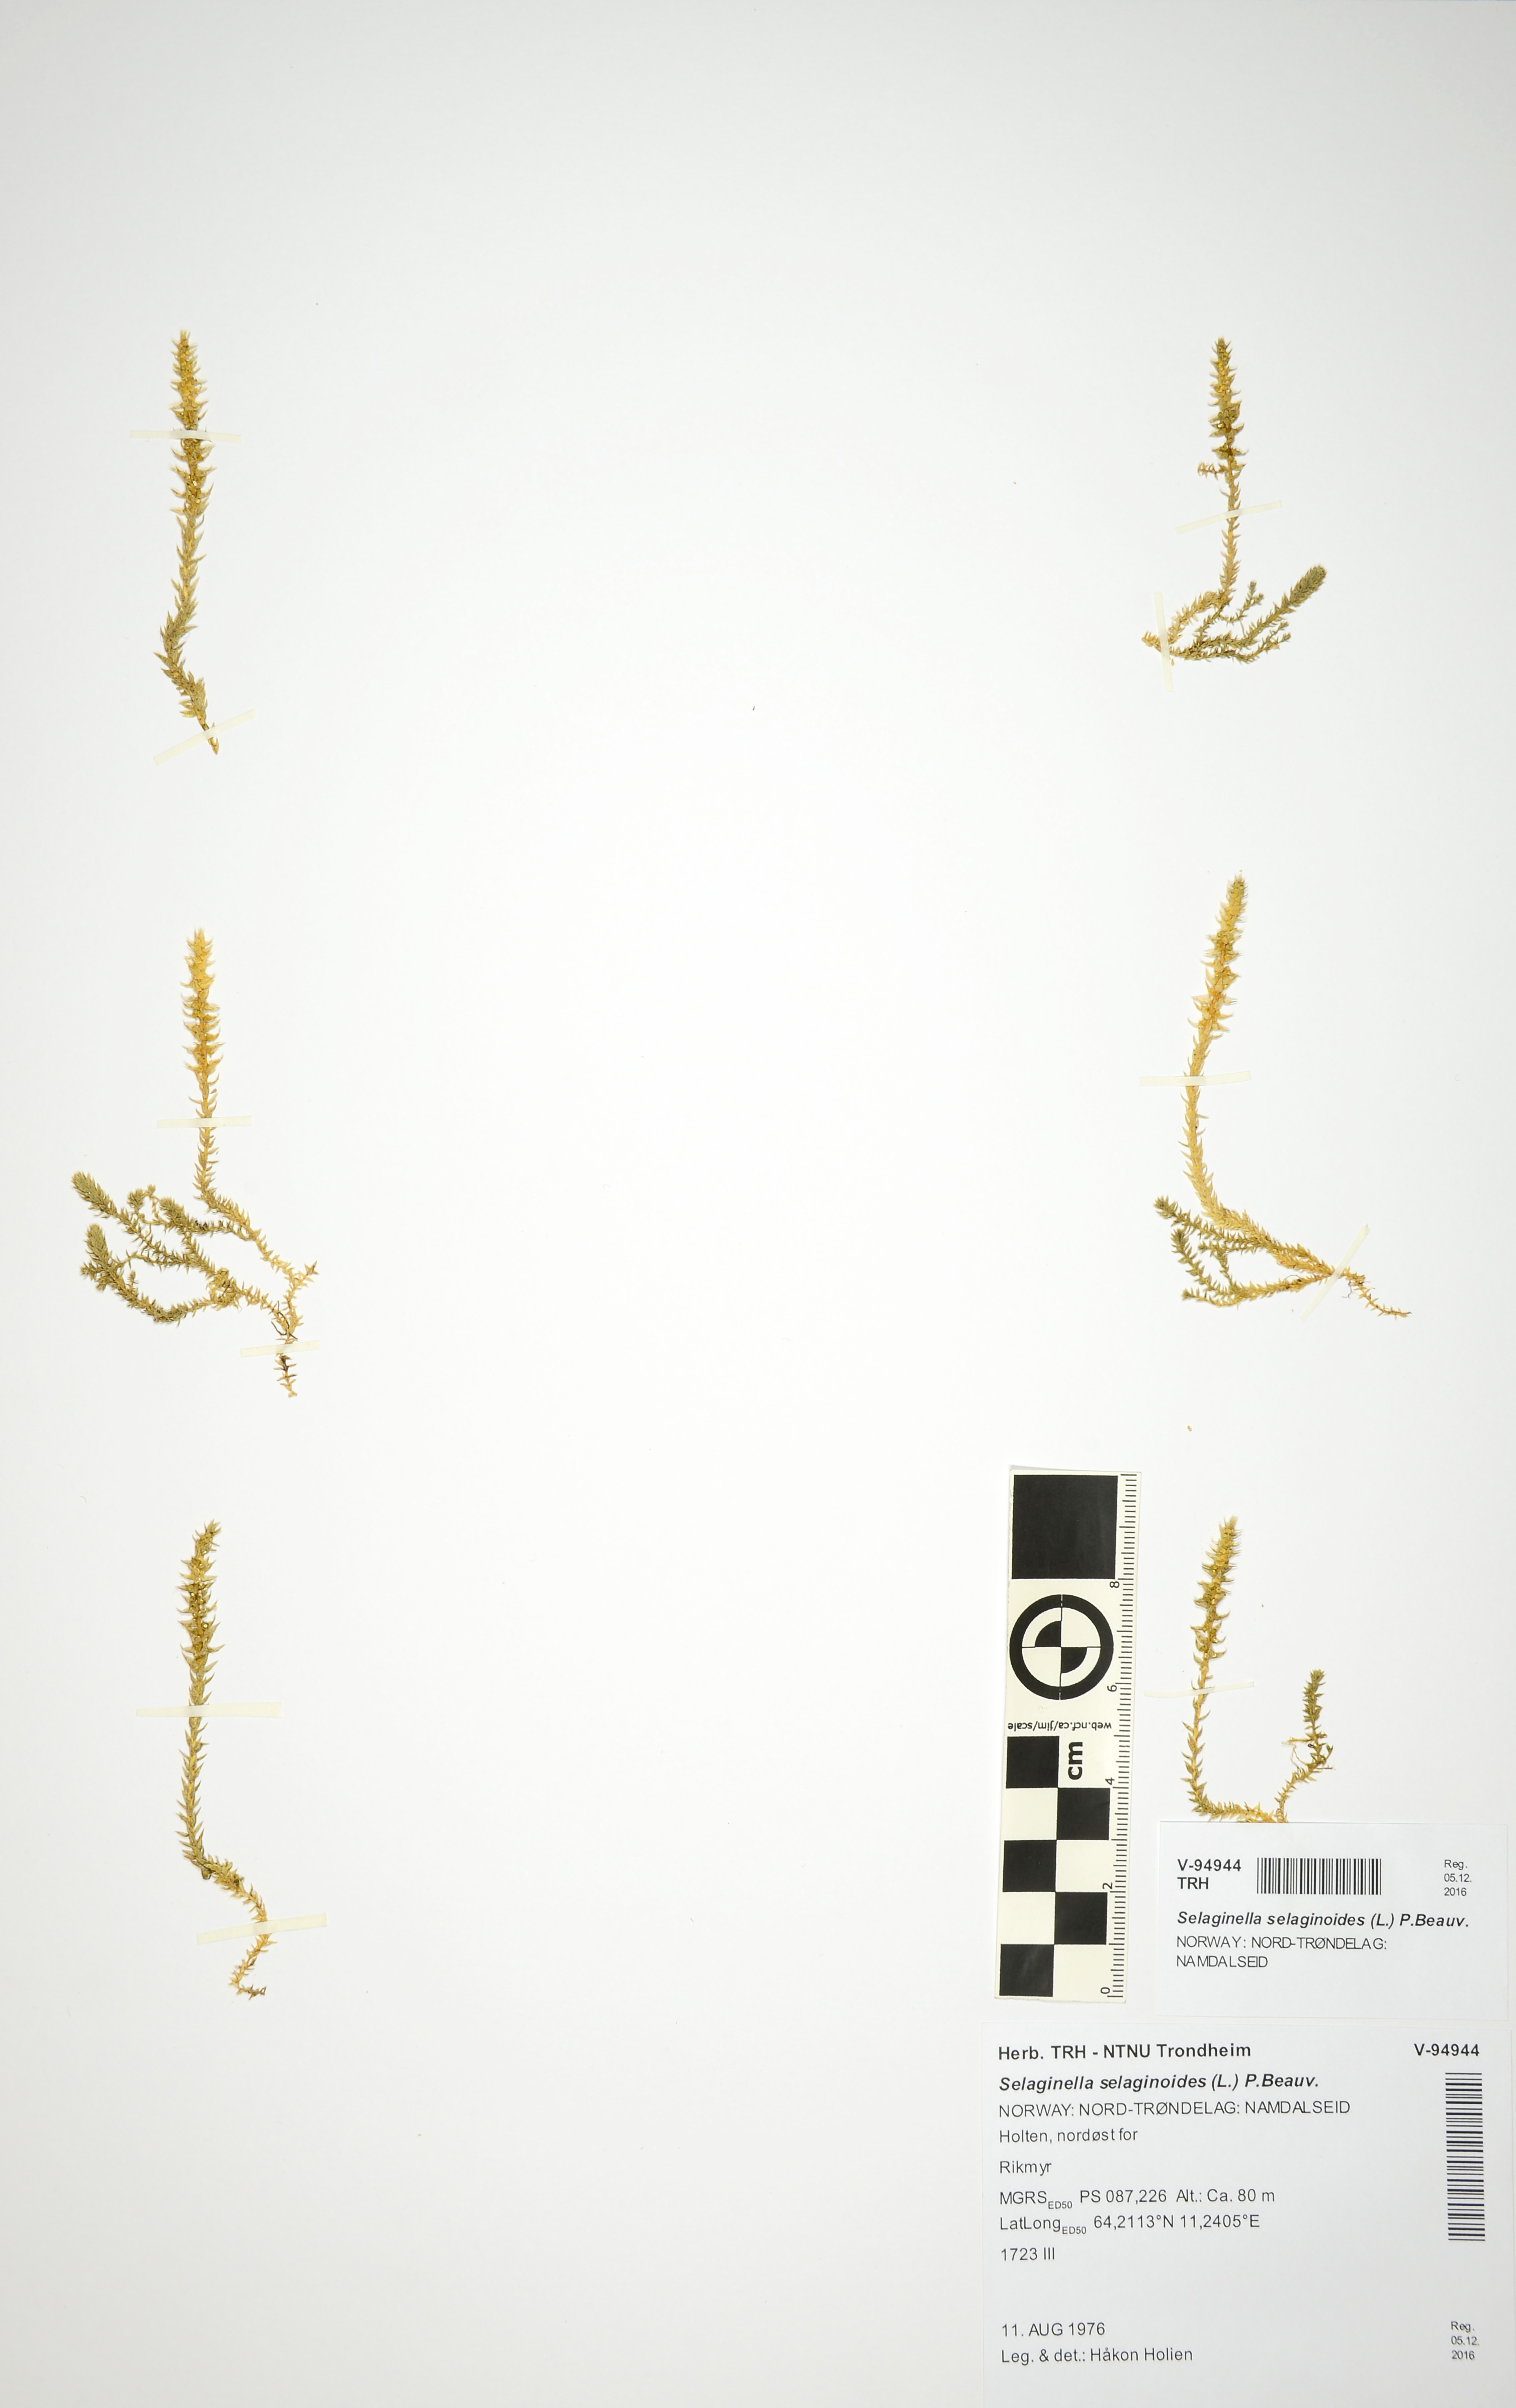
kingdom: Plantae
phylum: Tracheophyta
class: Lycopodiopsida
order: Selaginellales
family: Selaginellaceae
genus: Selaginella
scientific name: Selaginella selaginoides
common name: Prickly mountain-moss
